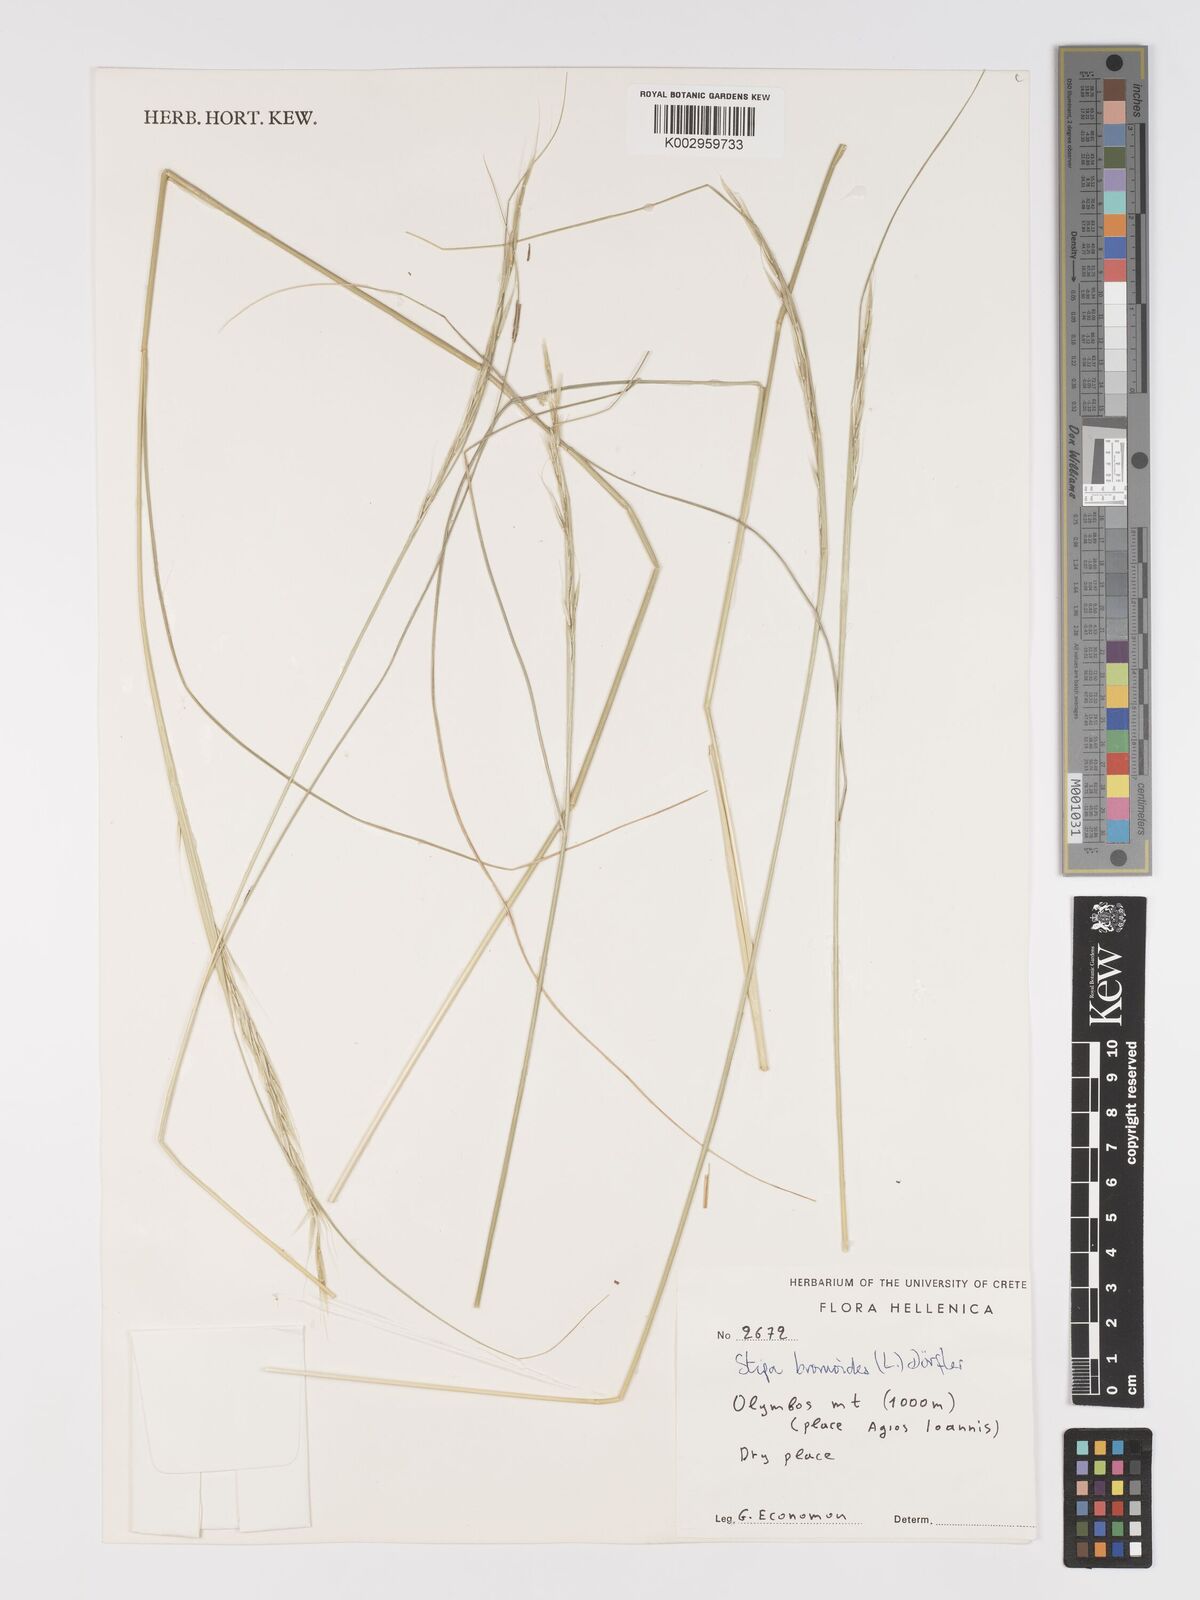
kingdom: Plantae
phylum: Tracheophyta
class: Liliopsida
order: Poales
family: Poaceae
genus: Achnatherum
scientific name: Achnatherum bromoides
